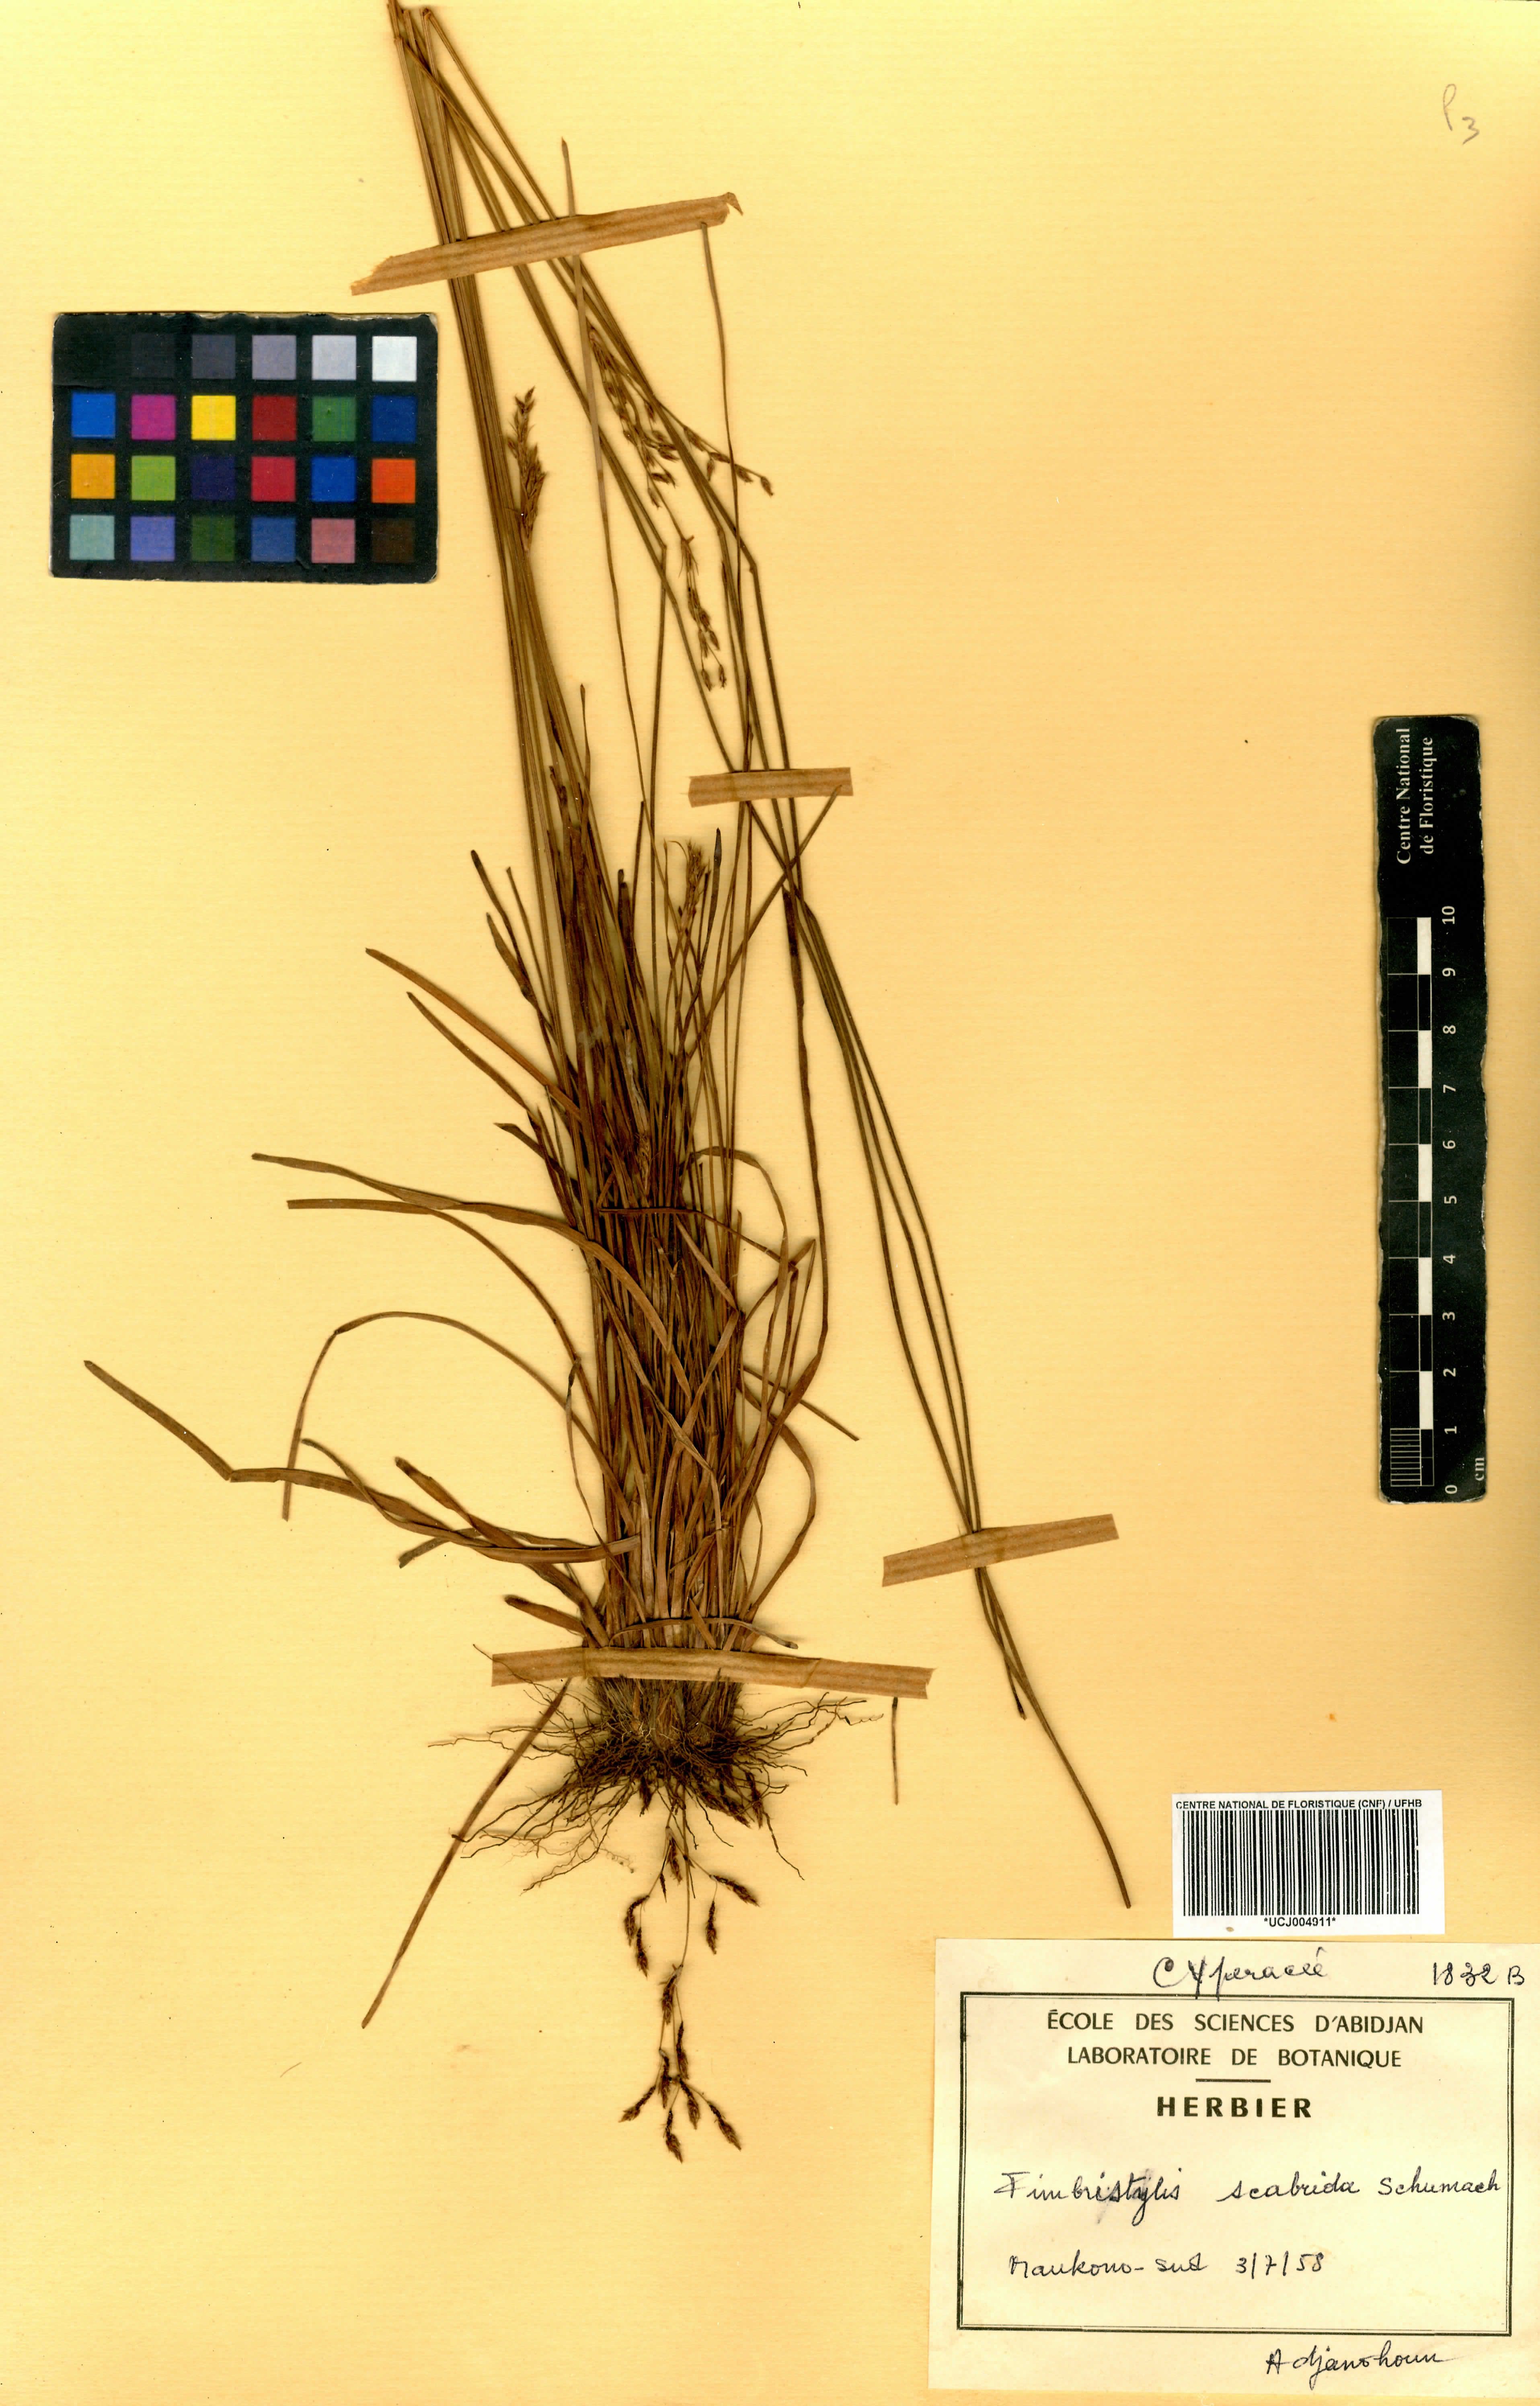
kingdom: Plantae
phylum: Tracheophyta
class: Liliopsida
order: Poales
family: Cyperaceae
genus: Fimbristylis
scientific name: Fimbristylis scabrida
